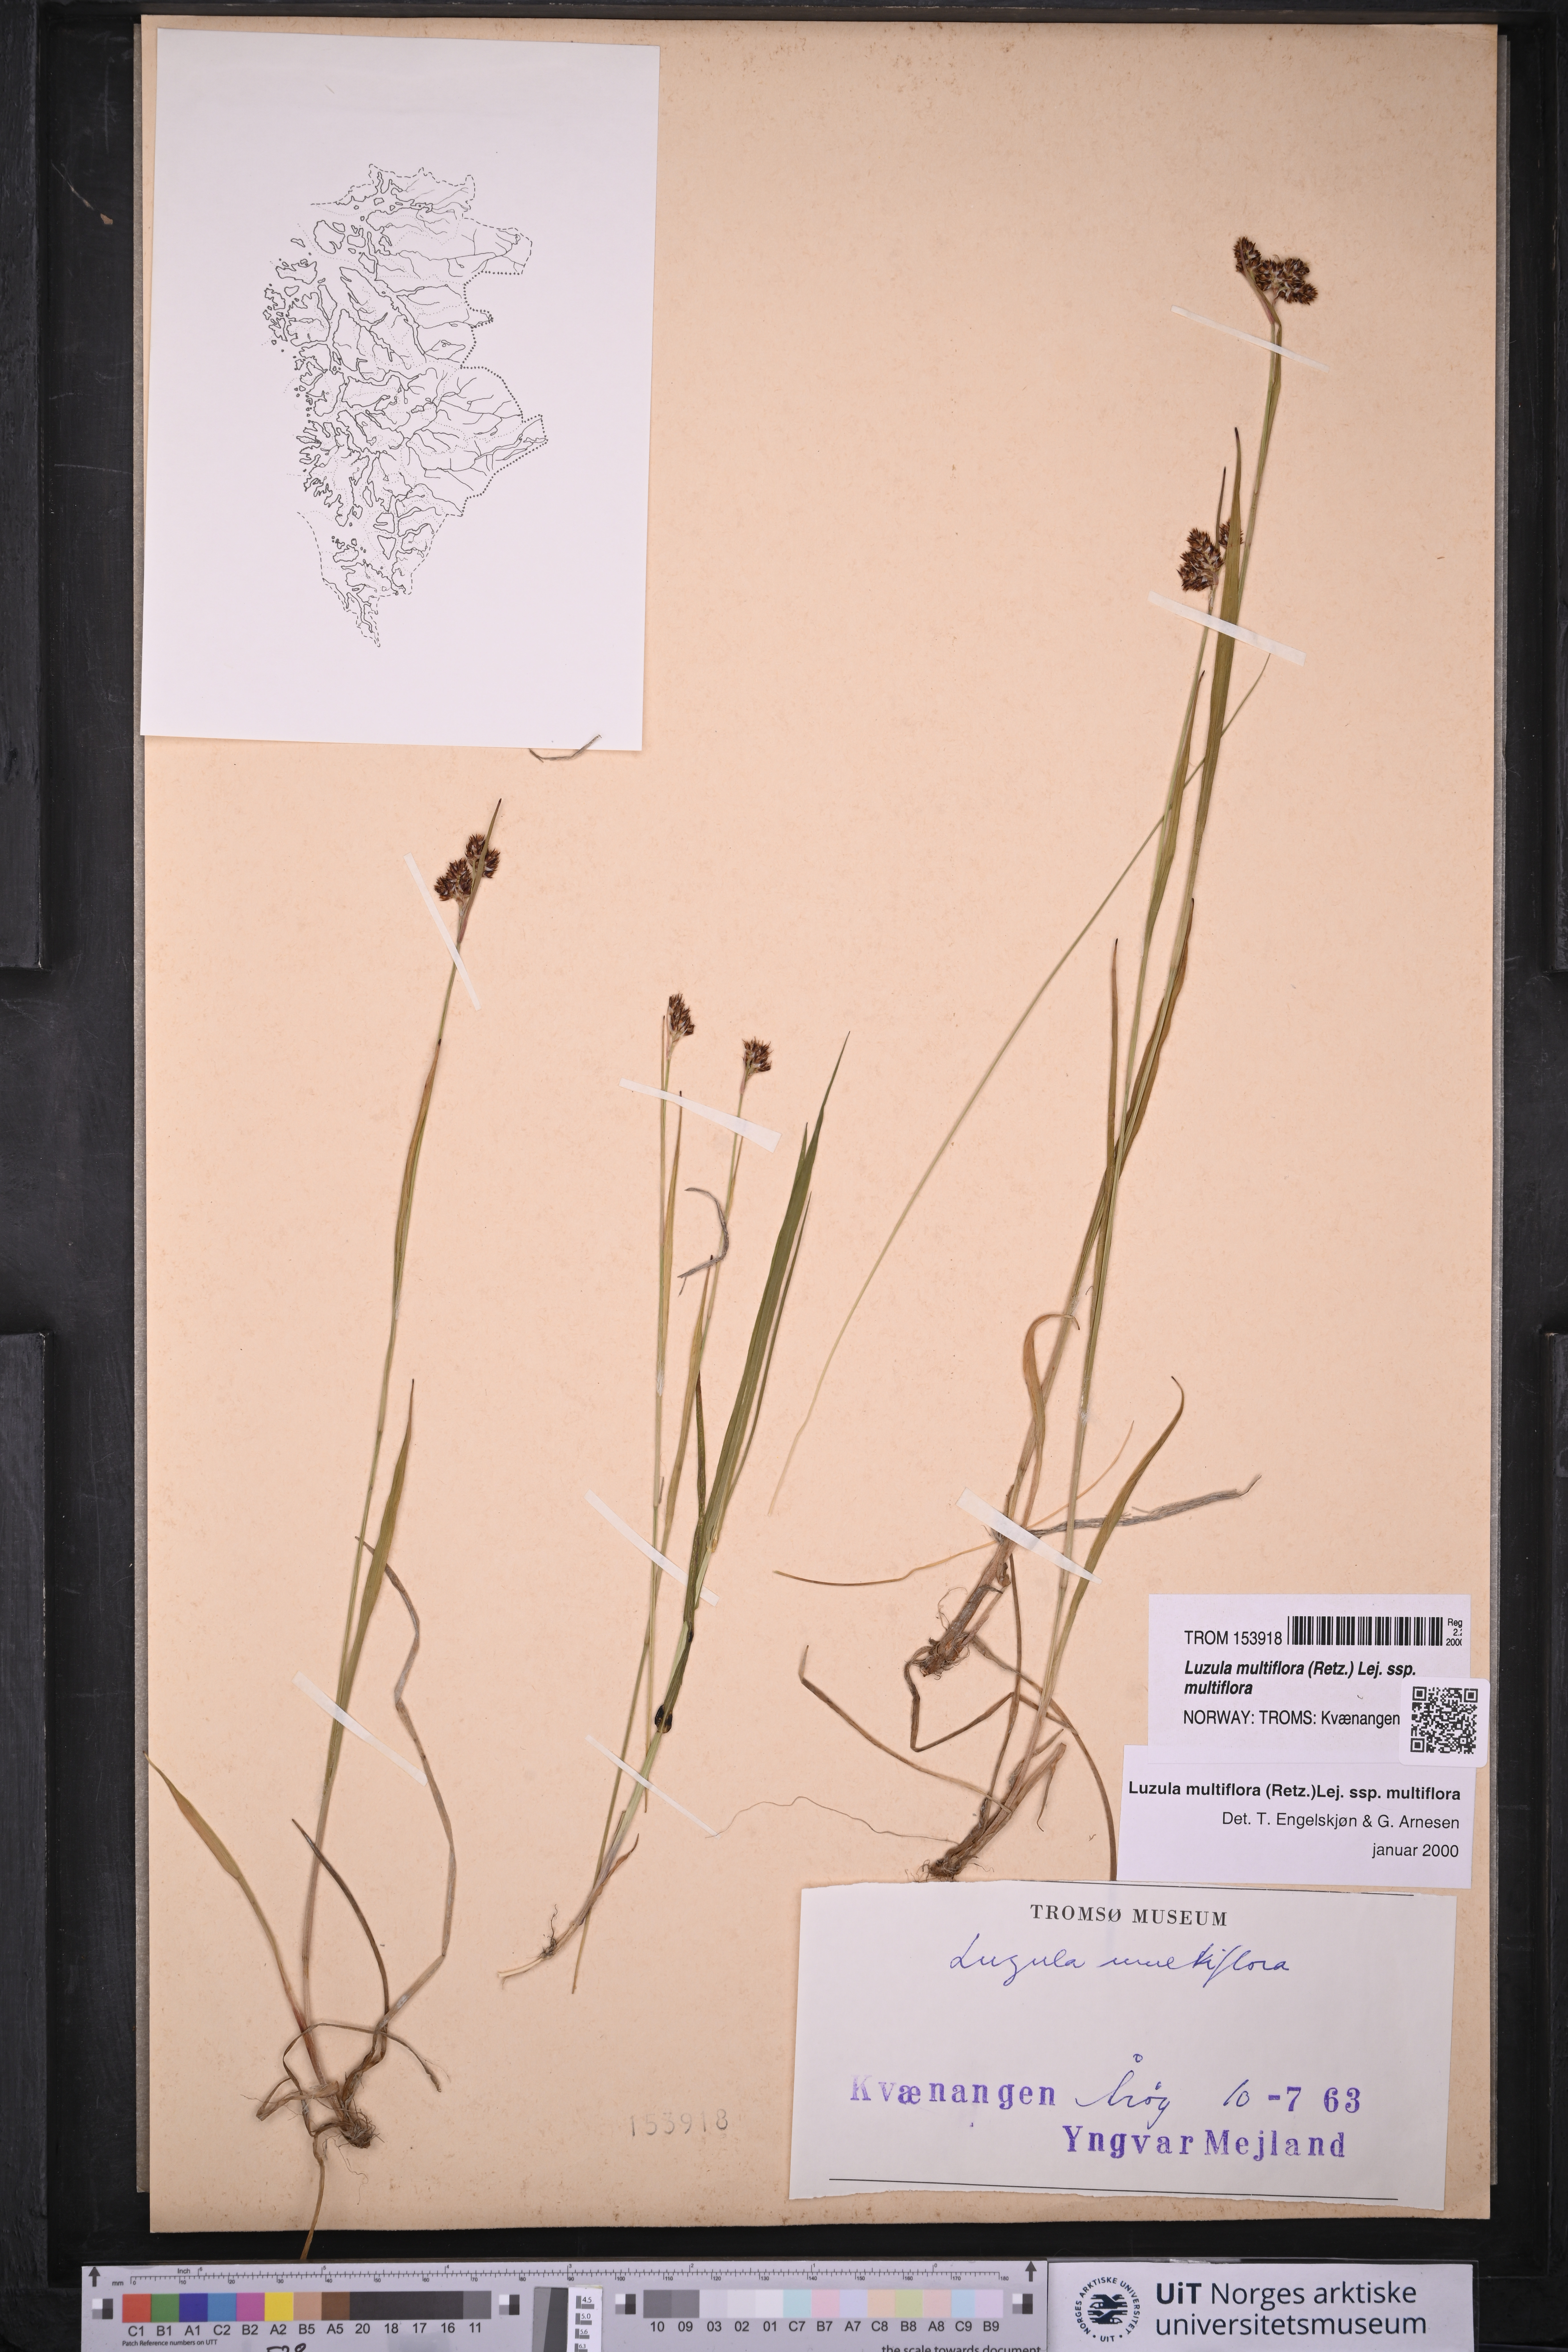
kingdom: Plantae
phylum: Tracheophyta
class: Liliopsida
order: Poales
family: Juncaceae
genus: Luzula
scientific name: Luzula multiflora
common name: Heath wood-rush
